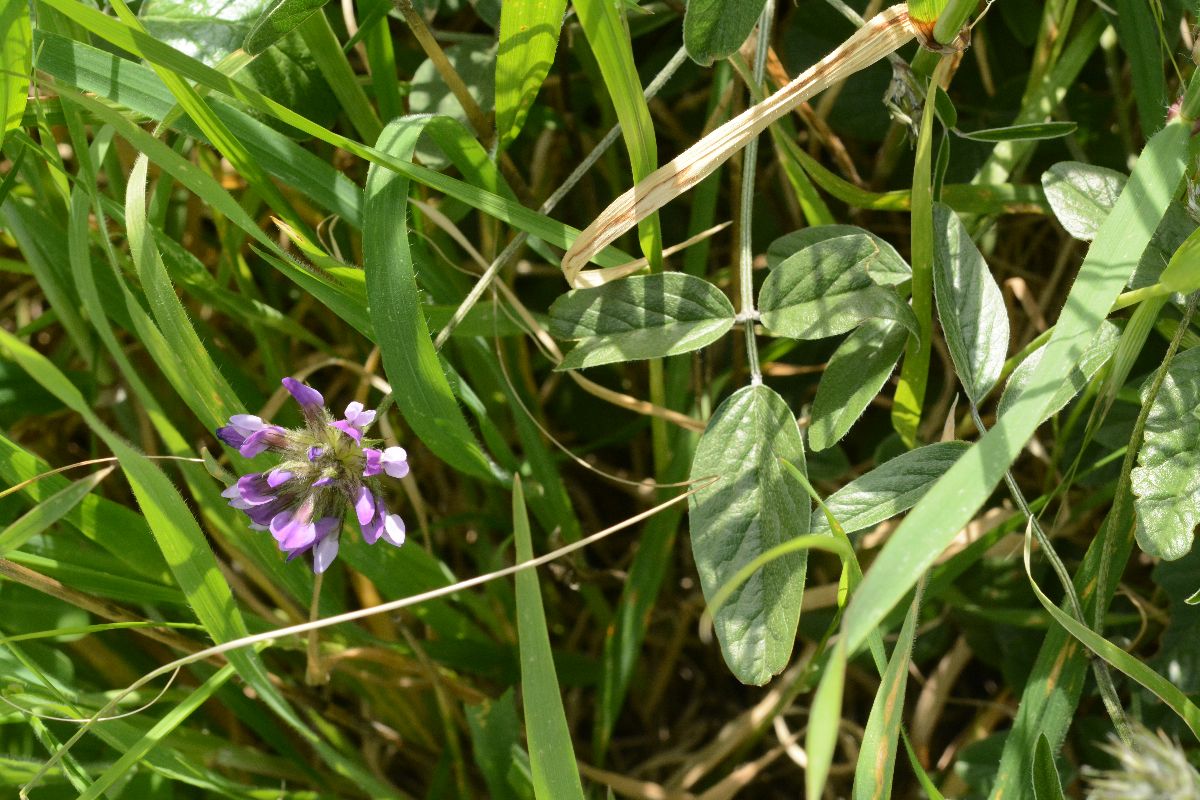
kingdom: Plantae
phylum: Tracheophyta
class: Magnoliopsida
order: Fabales
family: Fabaceae
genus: Bituminaria
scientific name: Bituminaria bituminosa
